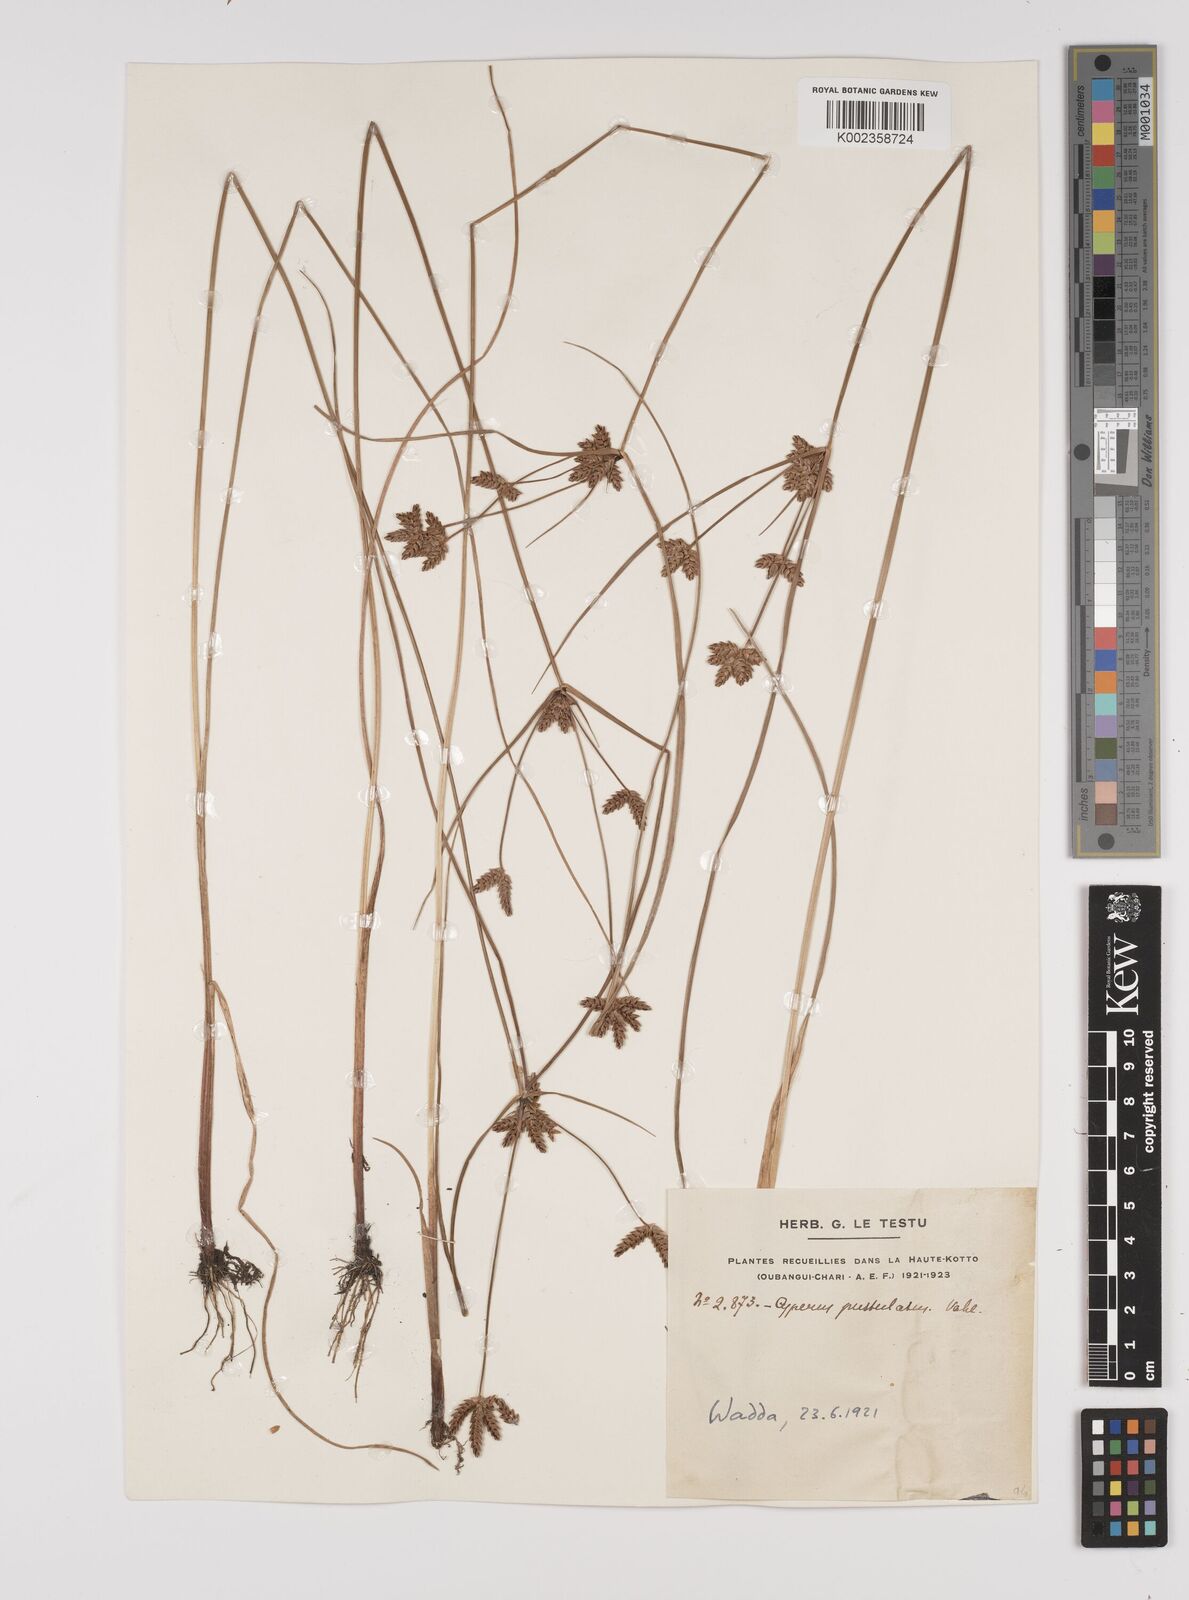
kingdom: Plantae
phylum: Tracheophyta
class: Liliopsida
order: Poales
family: Cyperaceae
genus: Cyperus
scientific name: Cyperus pustulatus
